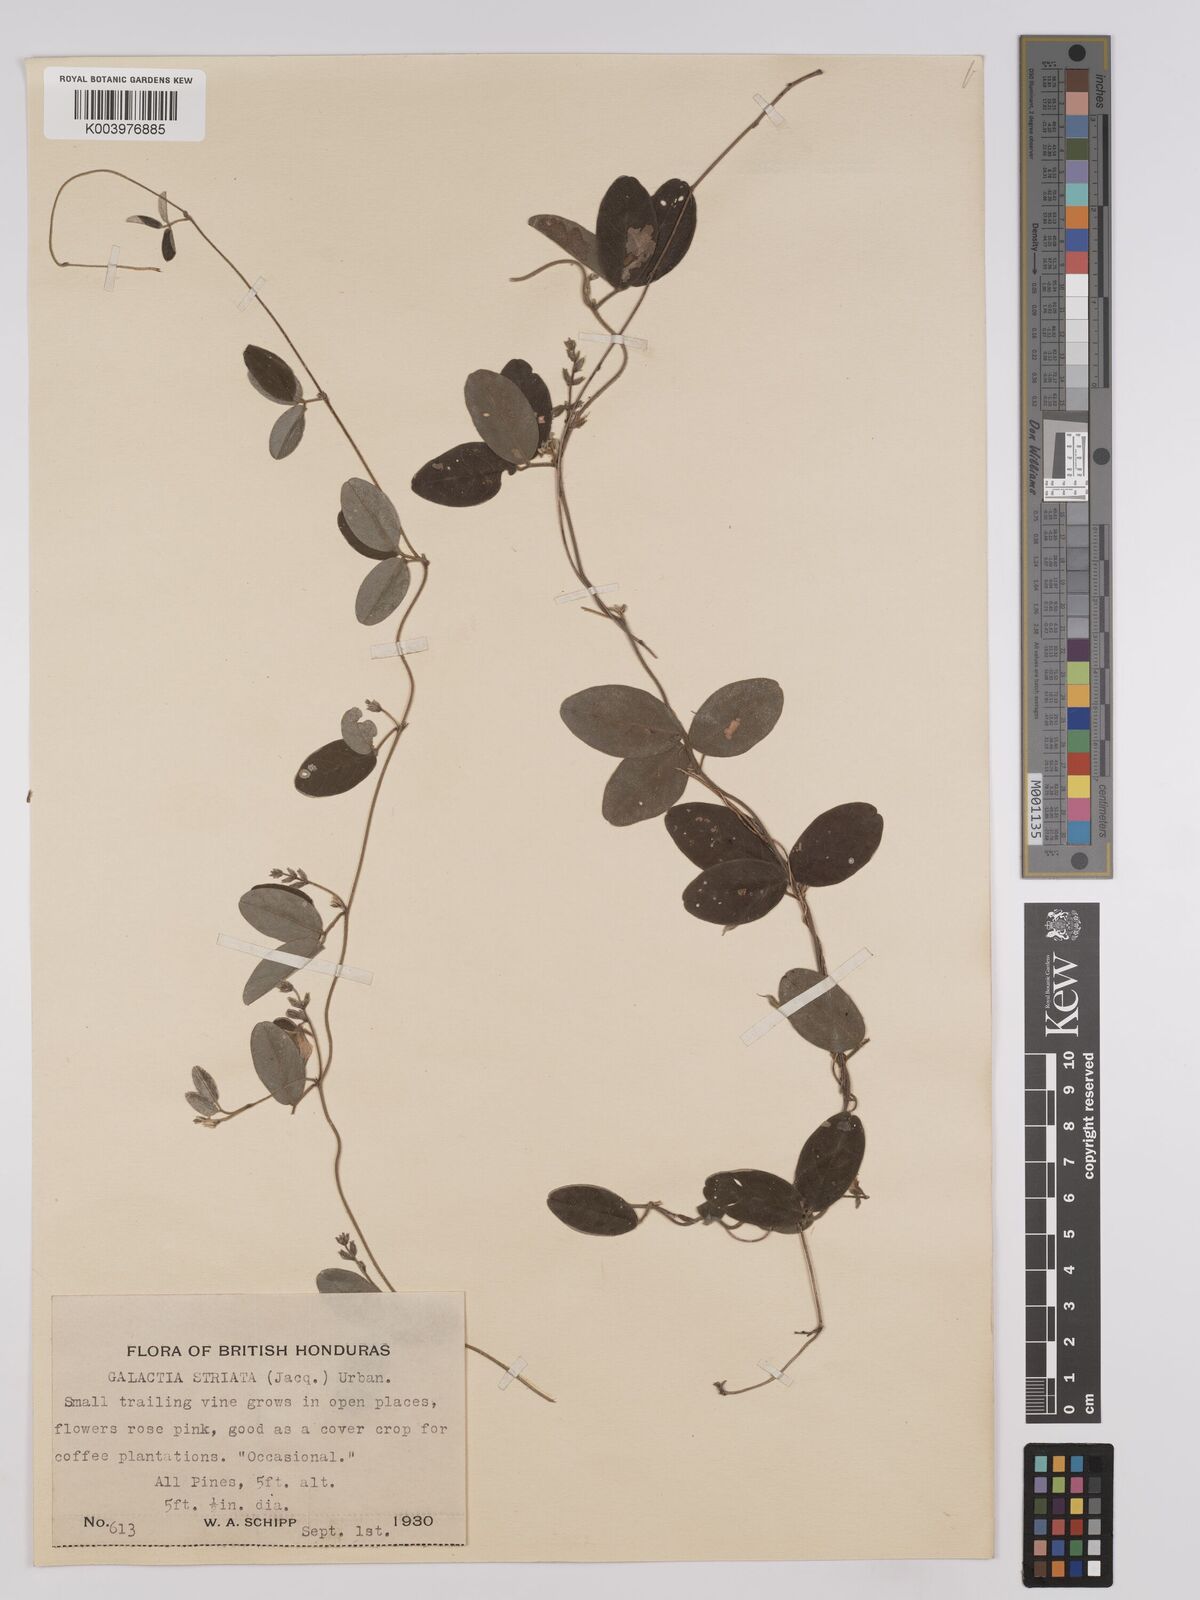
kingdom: Plantae
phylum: Tracheophyta
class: Magnoliopsida
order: Fabales
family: Fabaceae
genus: Galactia
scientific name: Galactia striata
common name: Florida hammock milkpea
